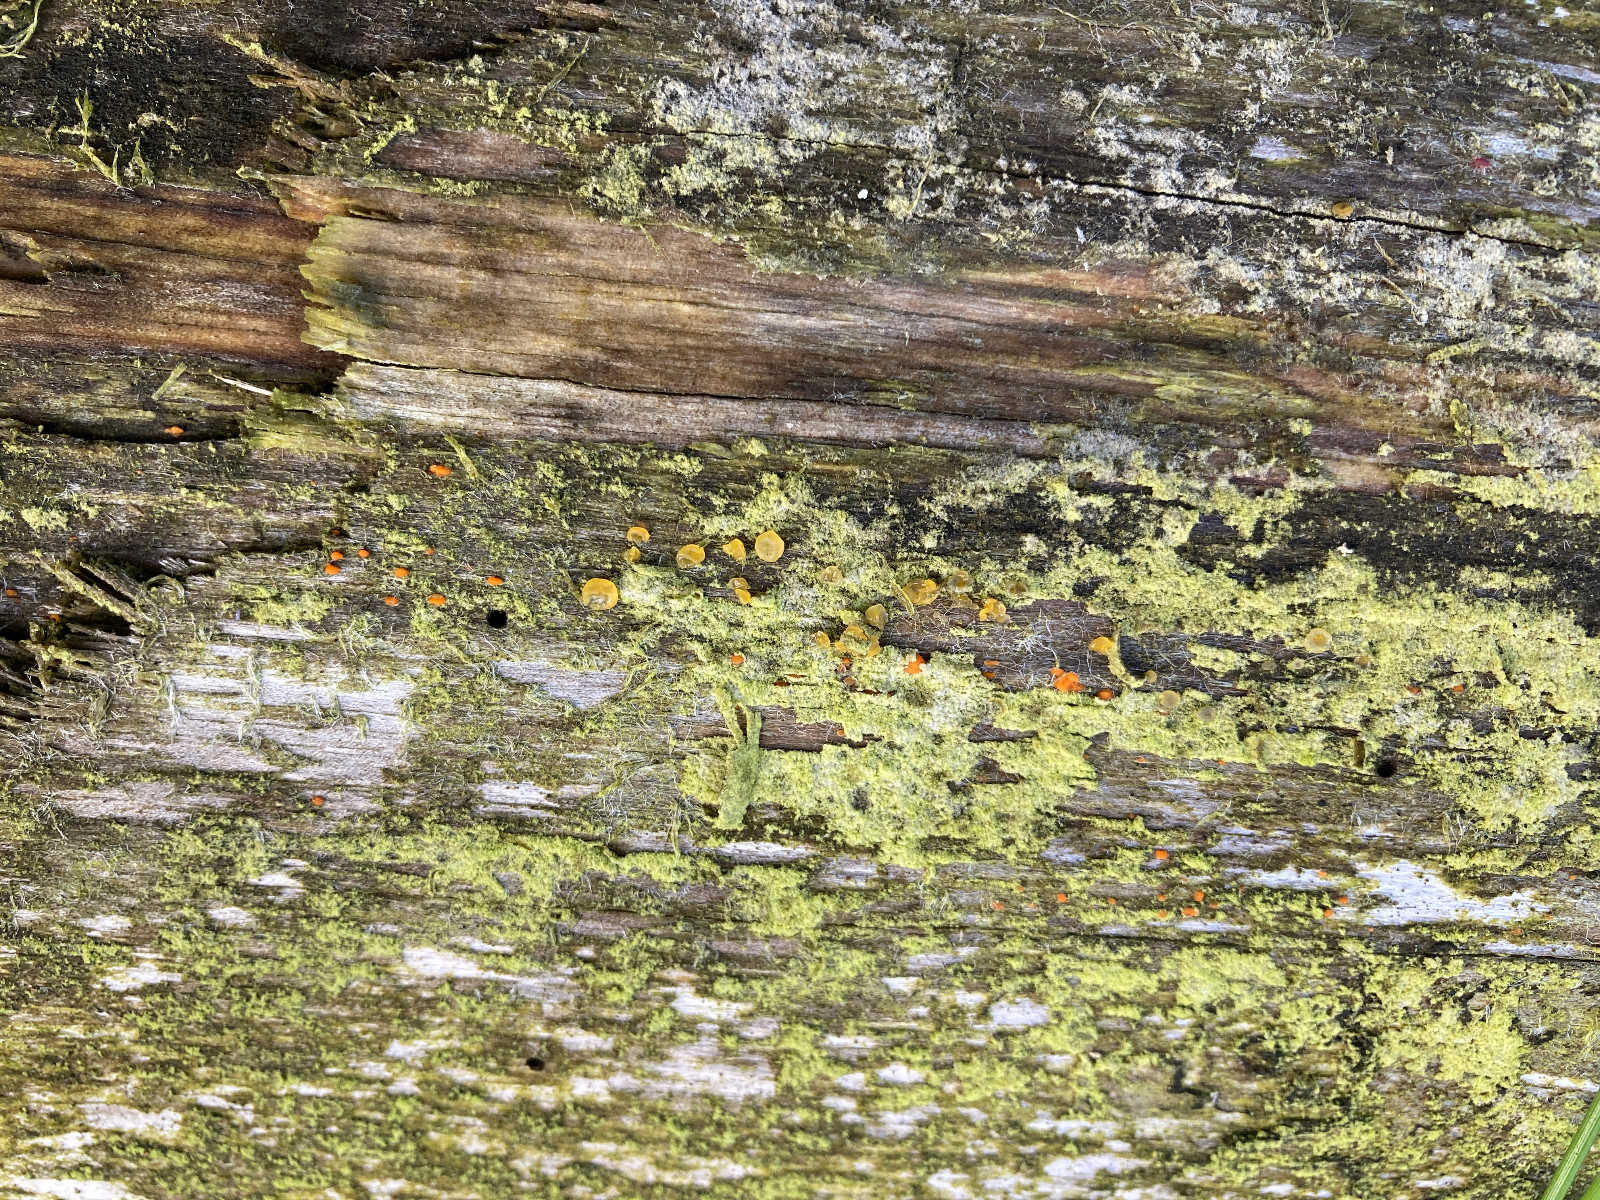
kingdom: Fungi
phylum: Basidiomycota
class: Dacrymycetes
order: Dacrymycetales
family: Dacrymycetaceae
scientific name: Dacrymycetaceae
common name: tåresvampfamilien
